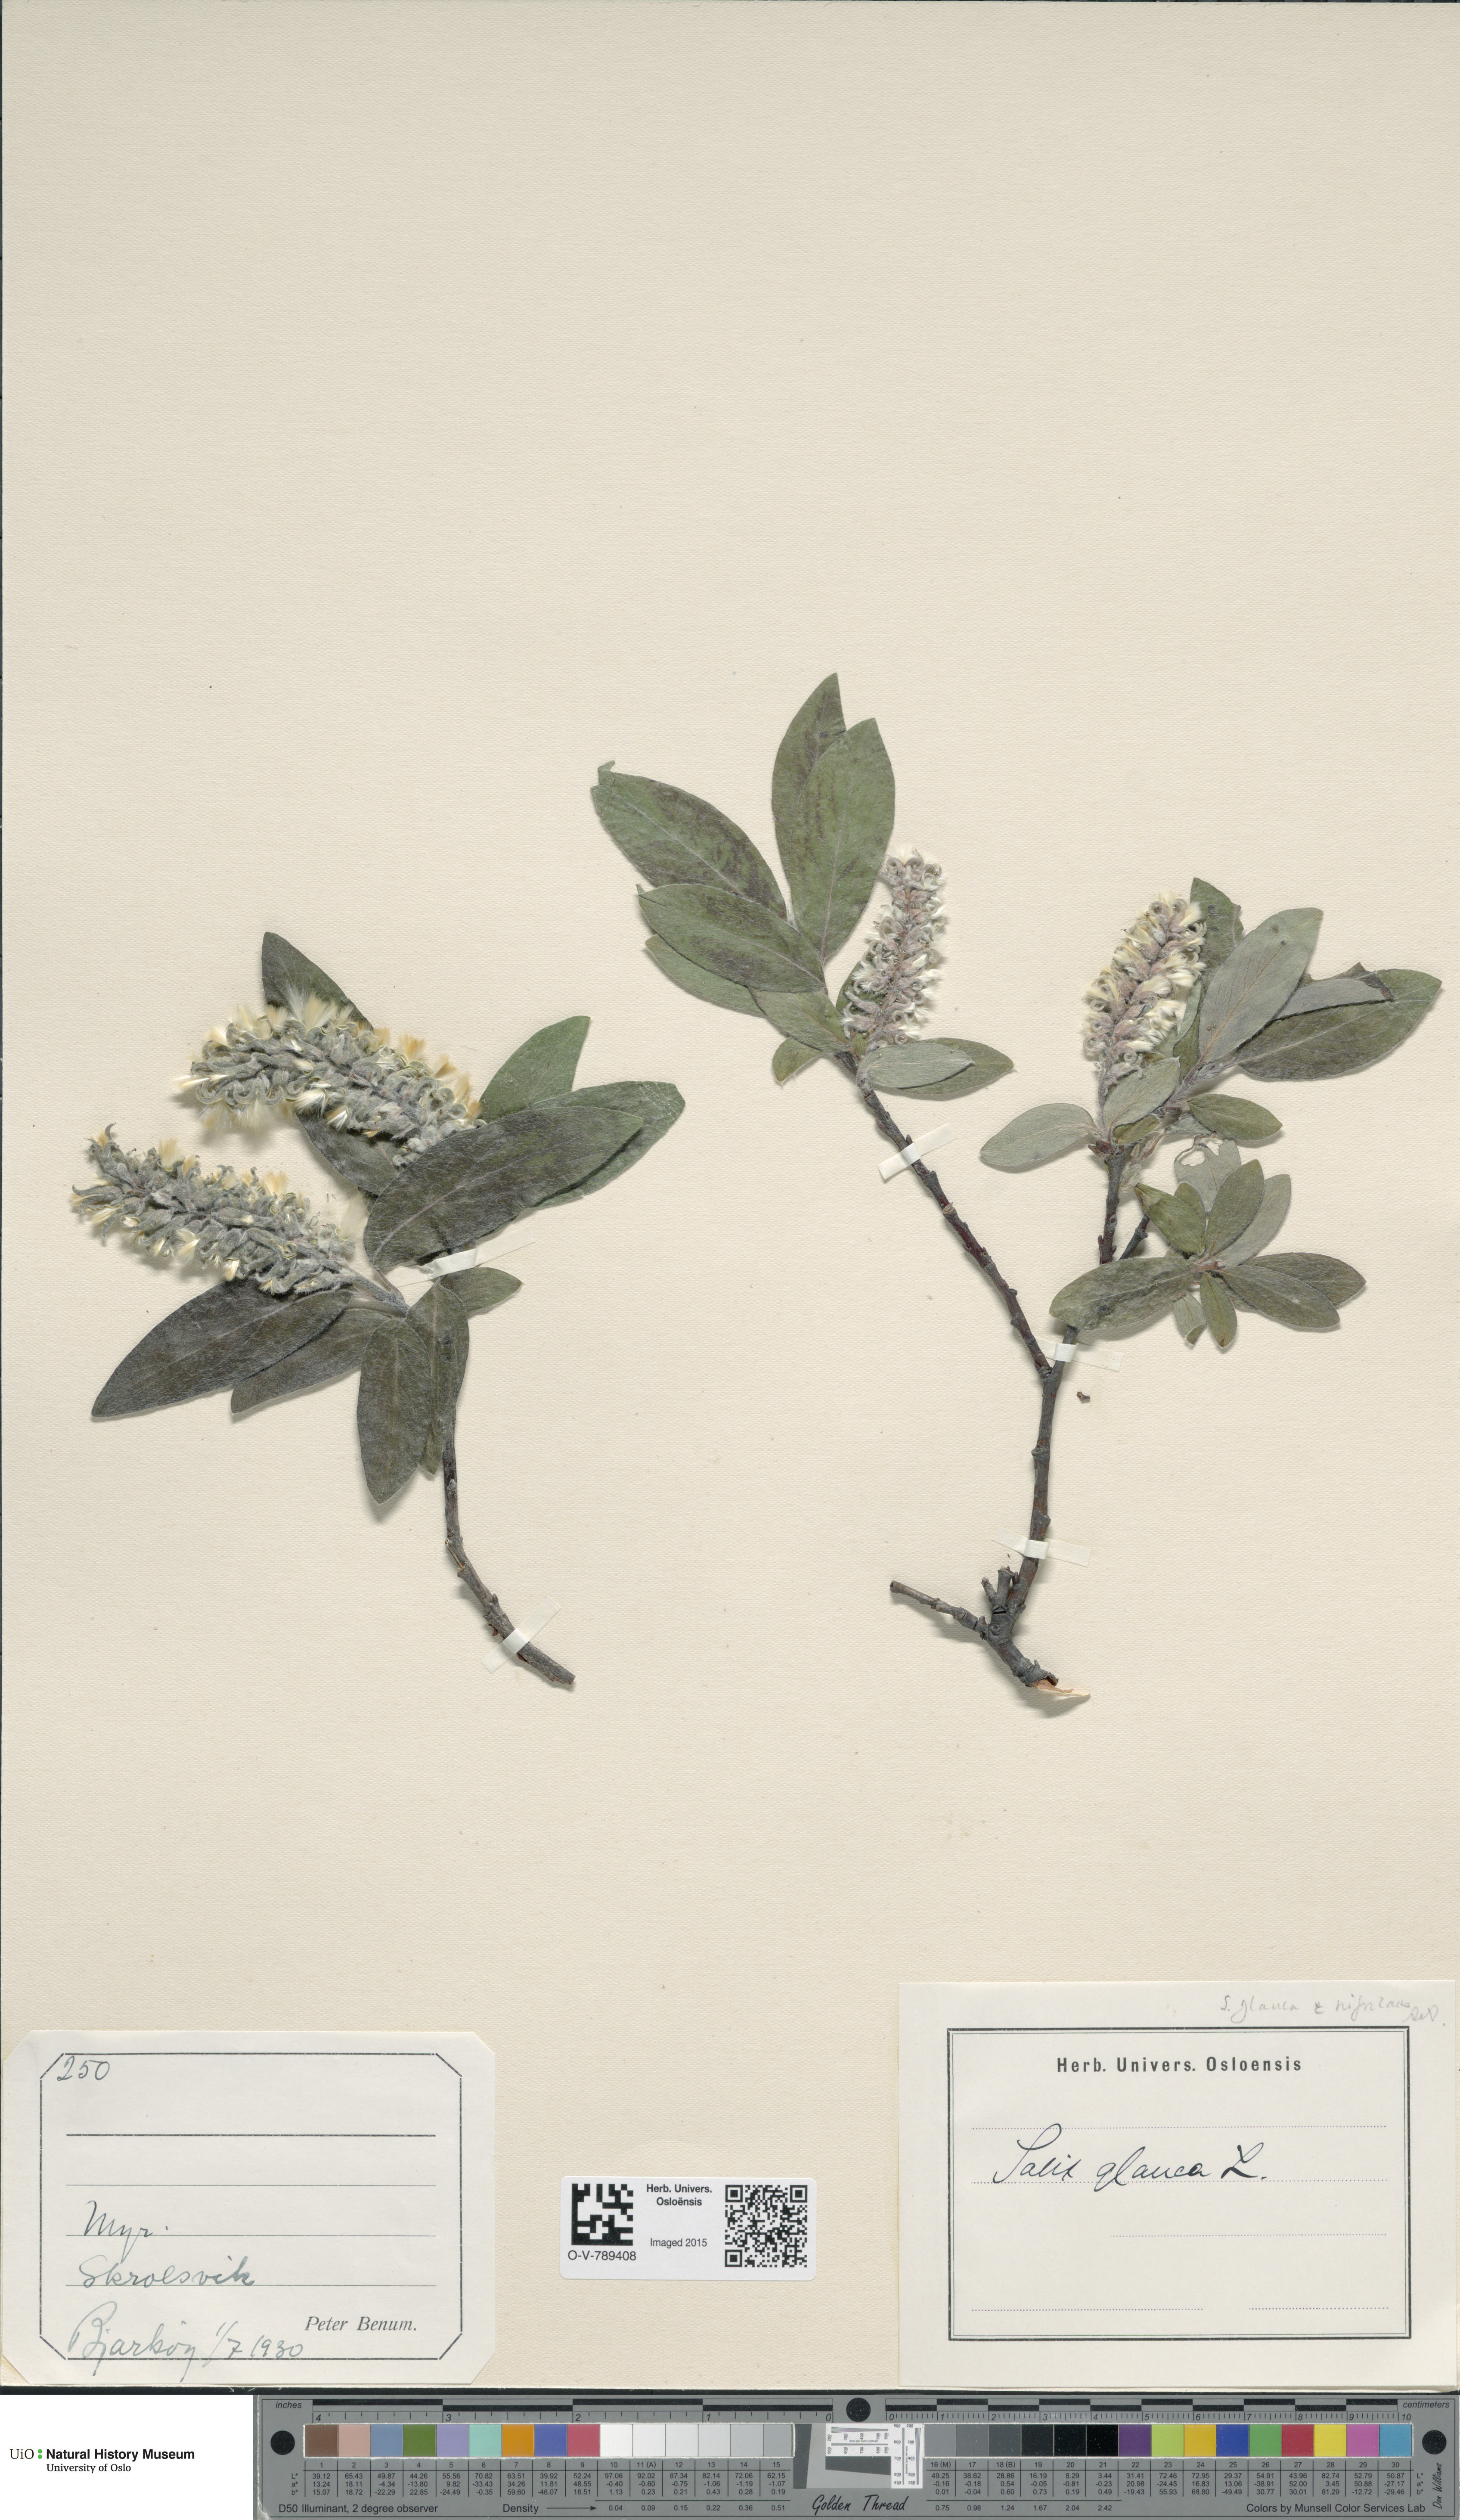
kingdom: Plantae
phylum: Tracheophyta
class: Magnoliopsida
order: Malpighiales
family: Salicaceae
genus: Salix
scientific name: Salix glauca
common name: Glaucous willow
